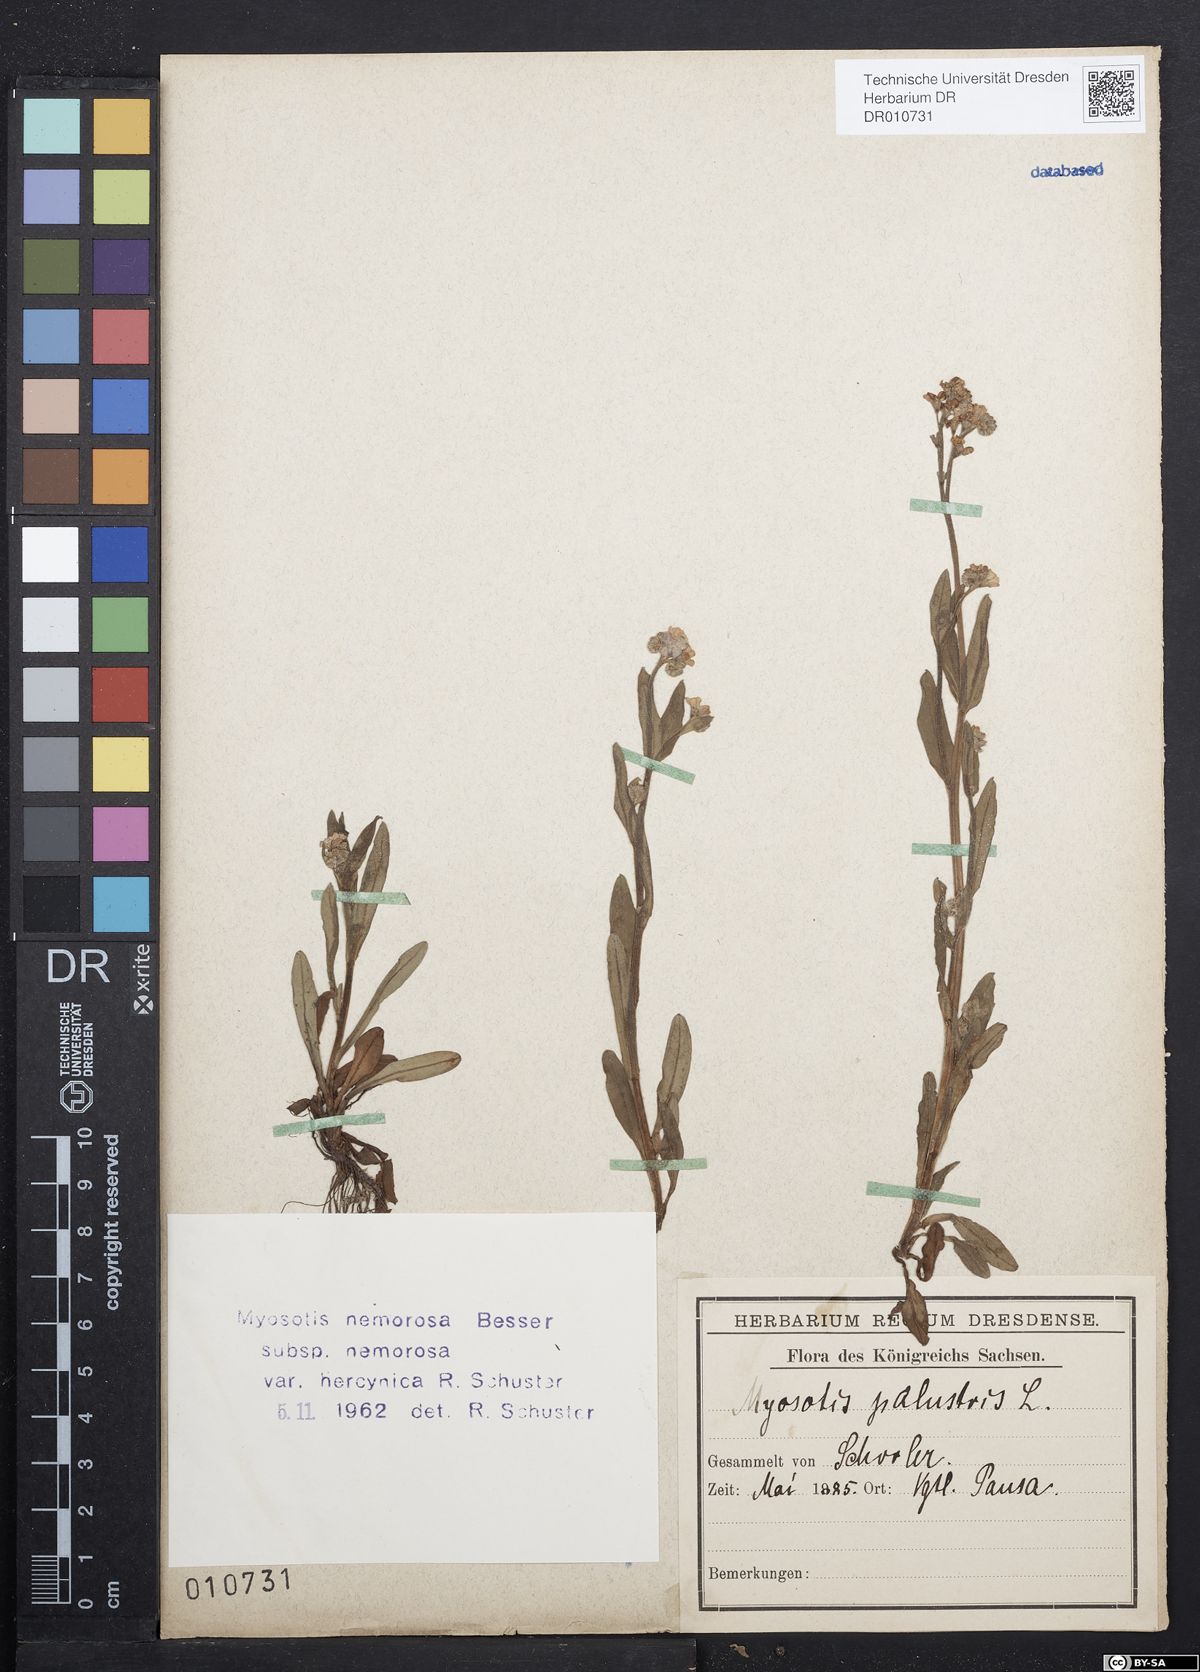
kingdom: Plantae
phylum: Tracheophyta
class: Magnoliopsida
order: Boraginales
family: Boraginaceae
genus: Myosotis
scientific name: Myosotis nemorosa
